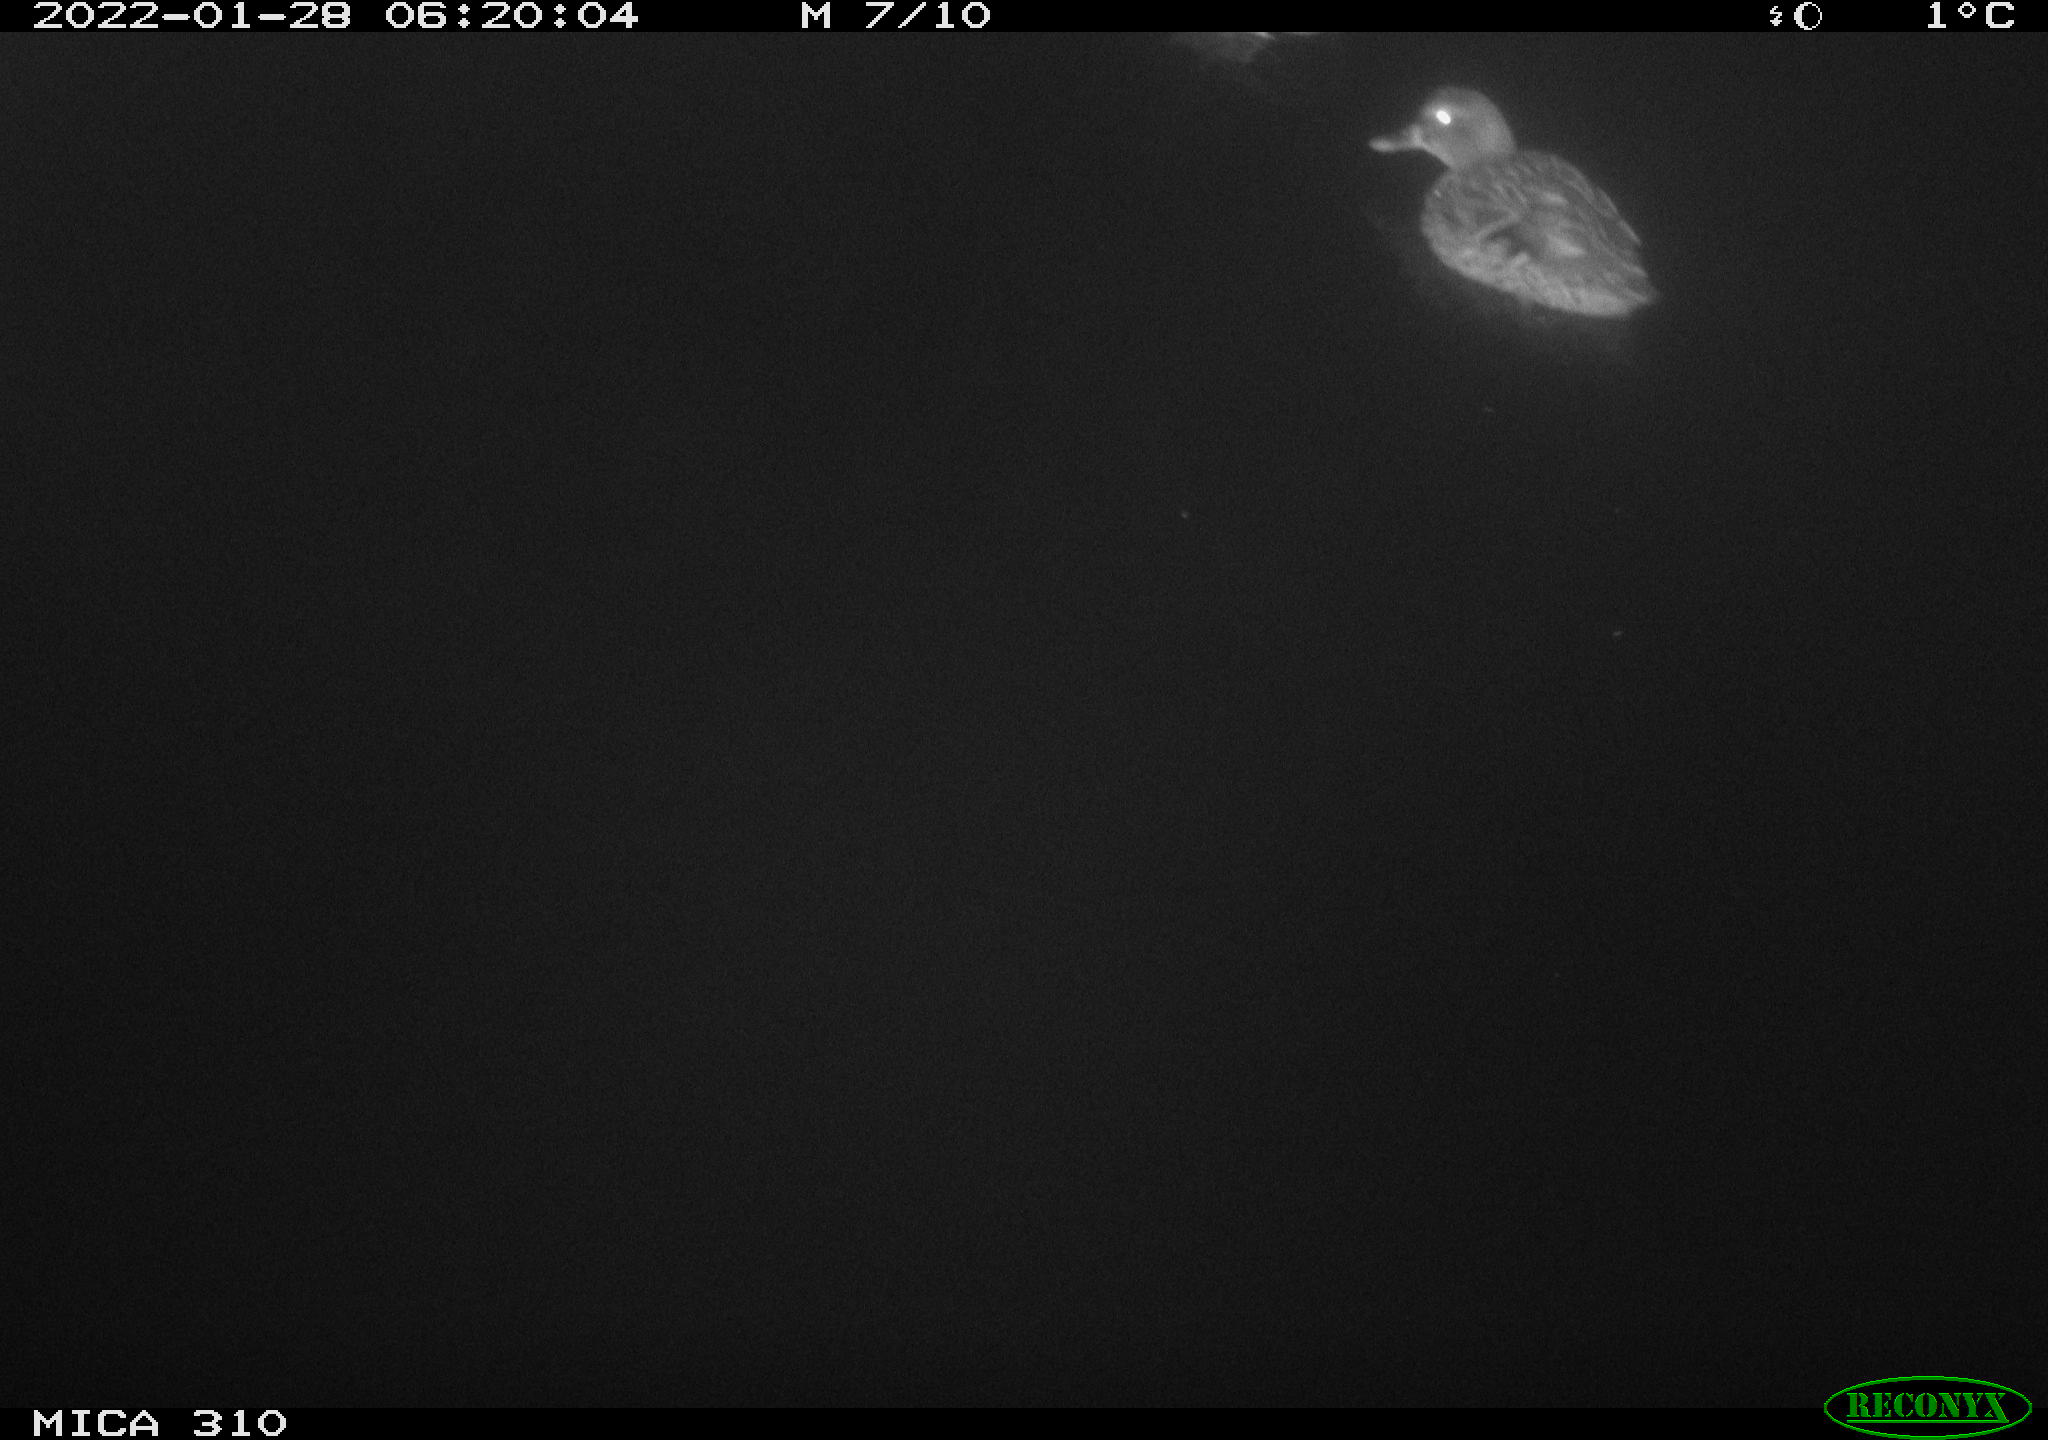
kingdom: Animalia
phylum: Chordata
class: Aves
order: Anseriformes
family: Anatidae
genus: Anas
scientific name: Anas
